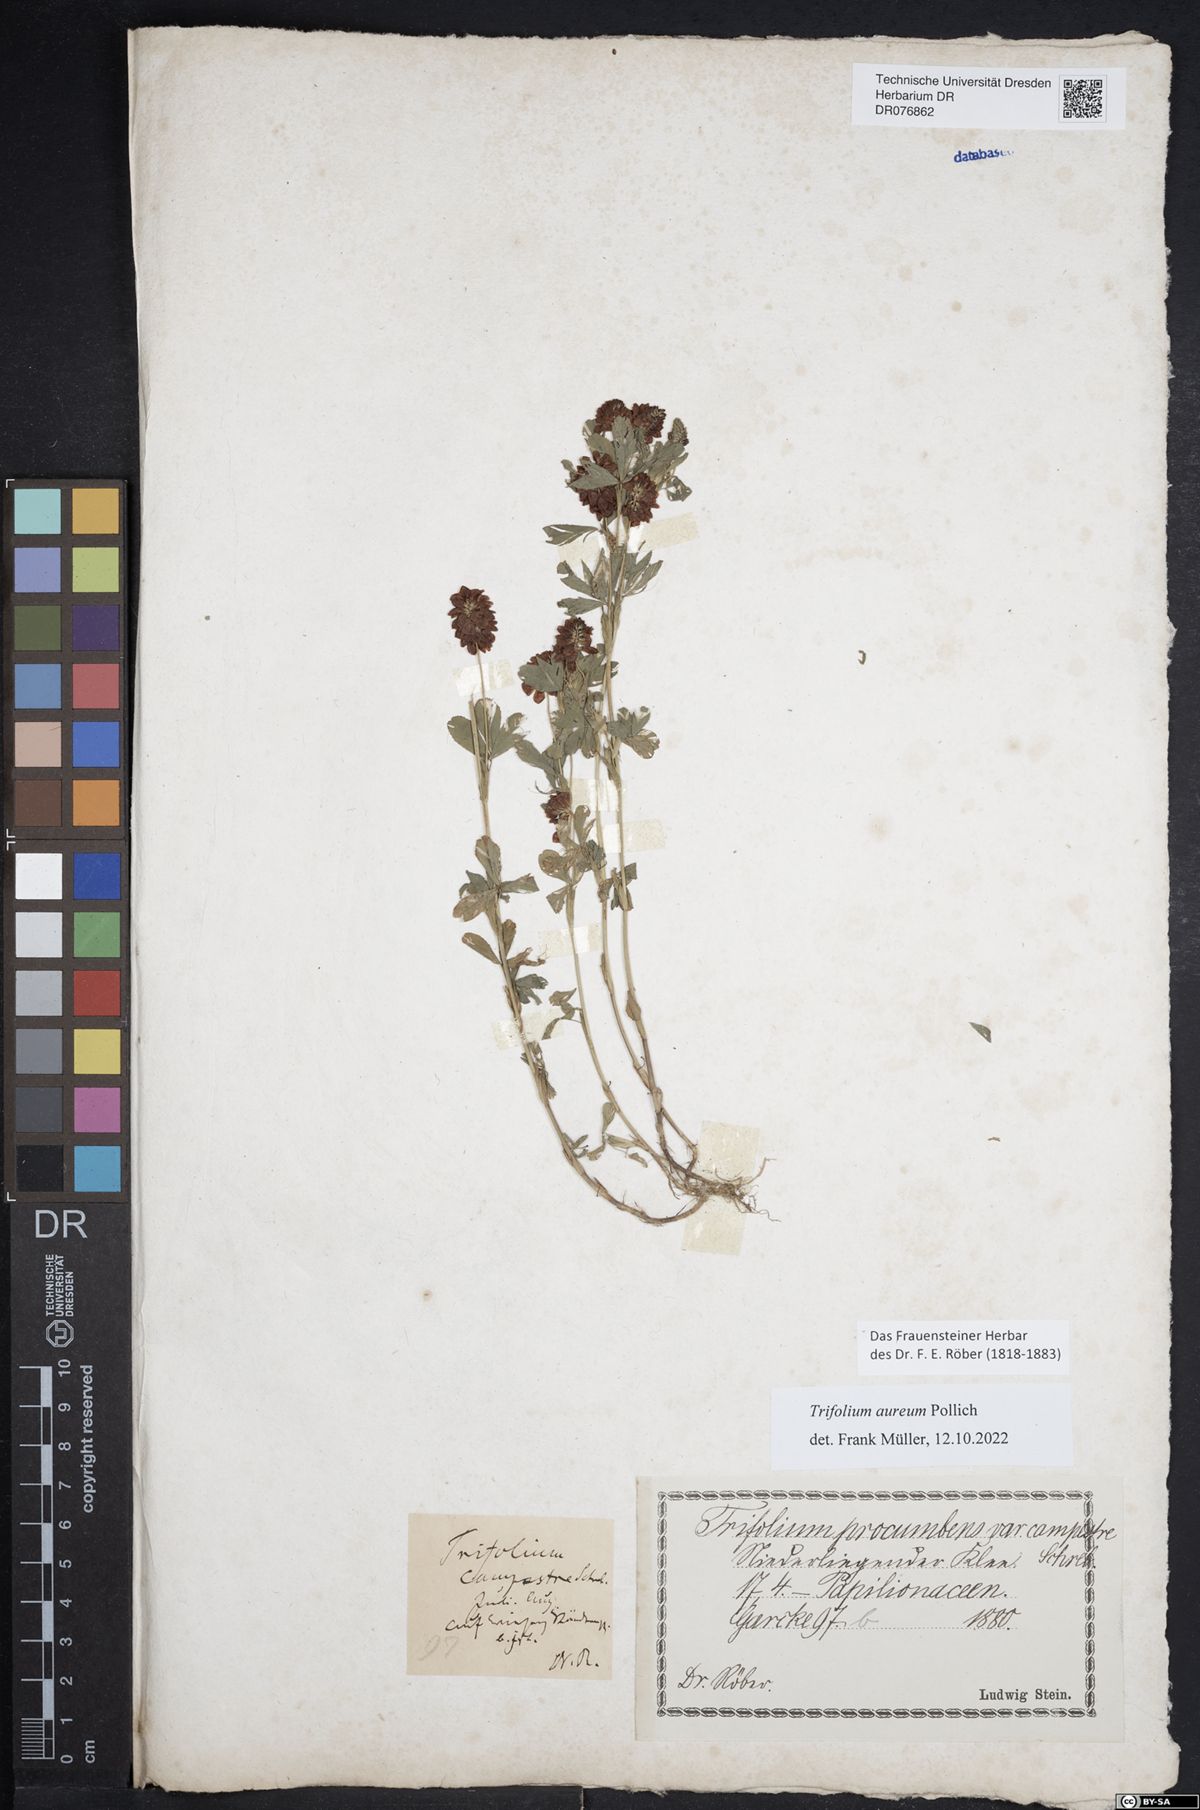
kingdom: Plantae
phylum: Tracheophyta
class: Magnoliopsida
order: Fabales
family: Fabaceae
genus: Trifolium
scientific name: Trifolium aureum
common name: Golden clover
